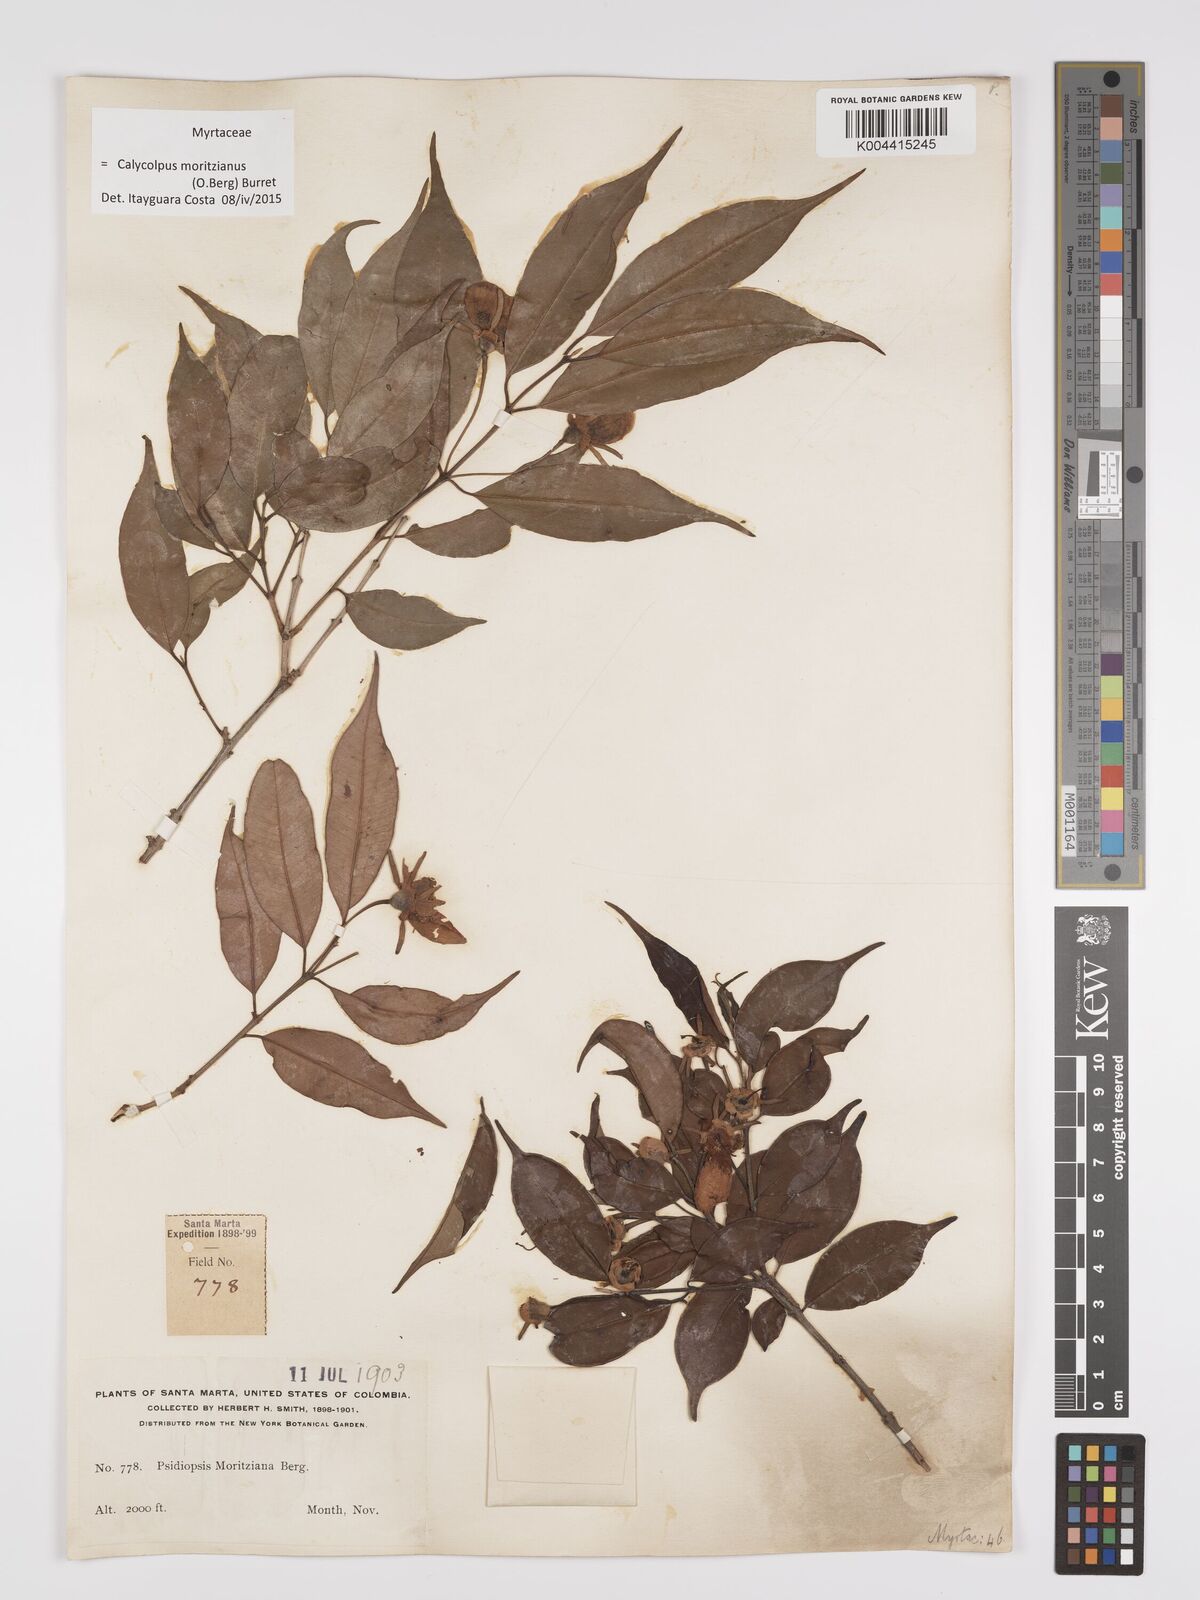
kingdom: Plantae
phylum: Tracheophyta
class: Magnoliopsida
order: Myrtales
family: Myrtaceae
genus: Calycolpus
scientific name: Calycolpus moritzianus
